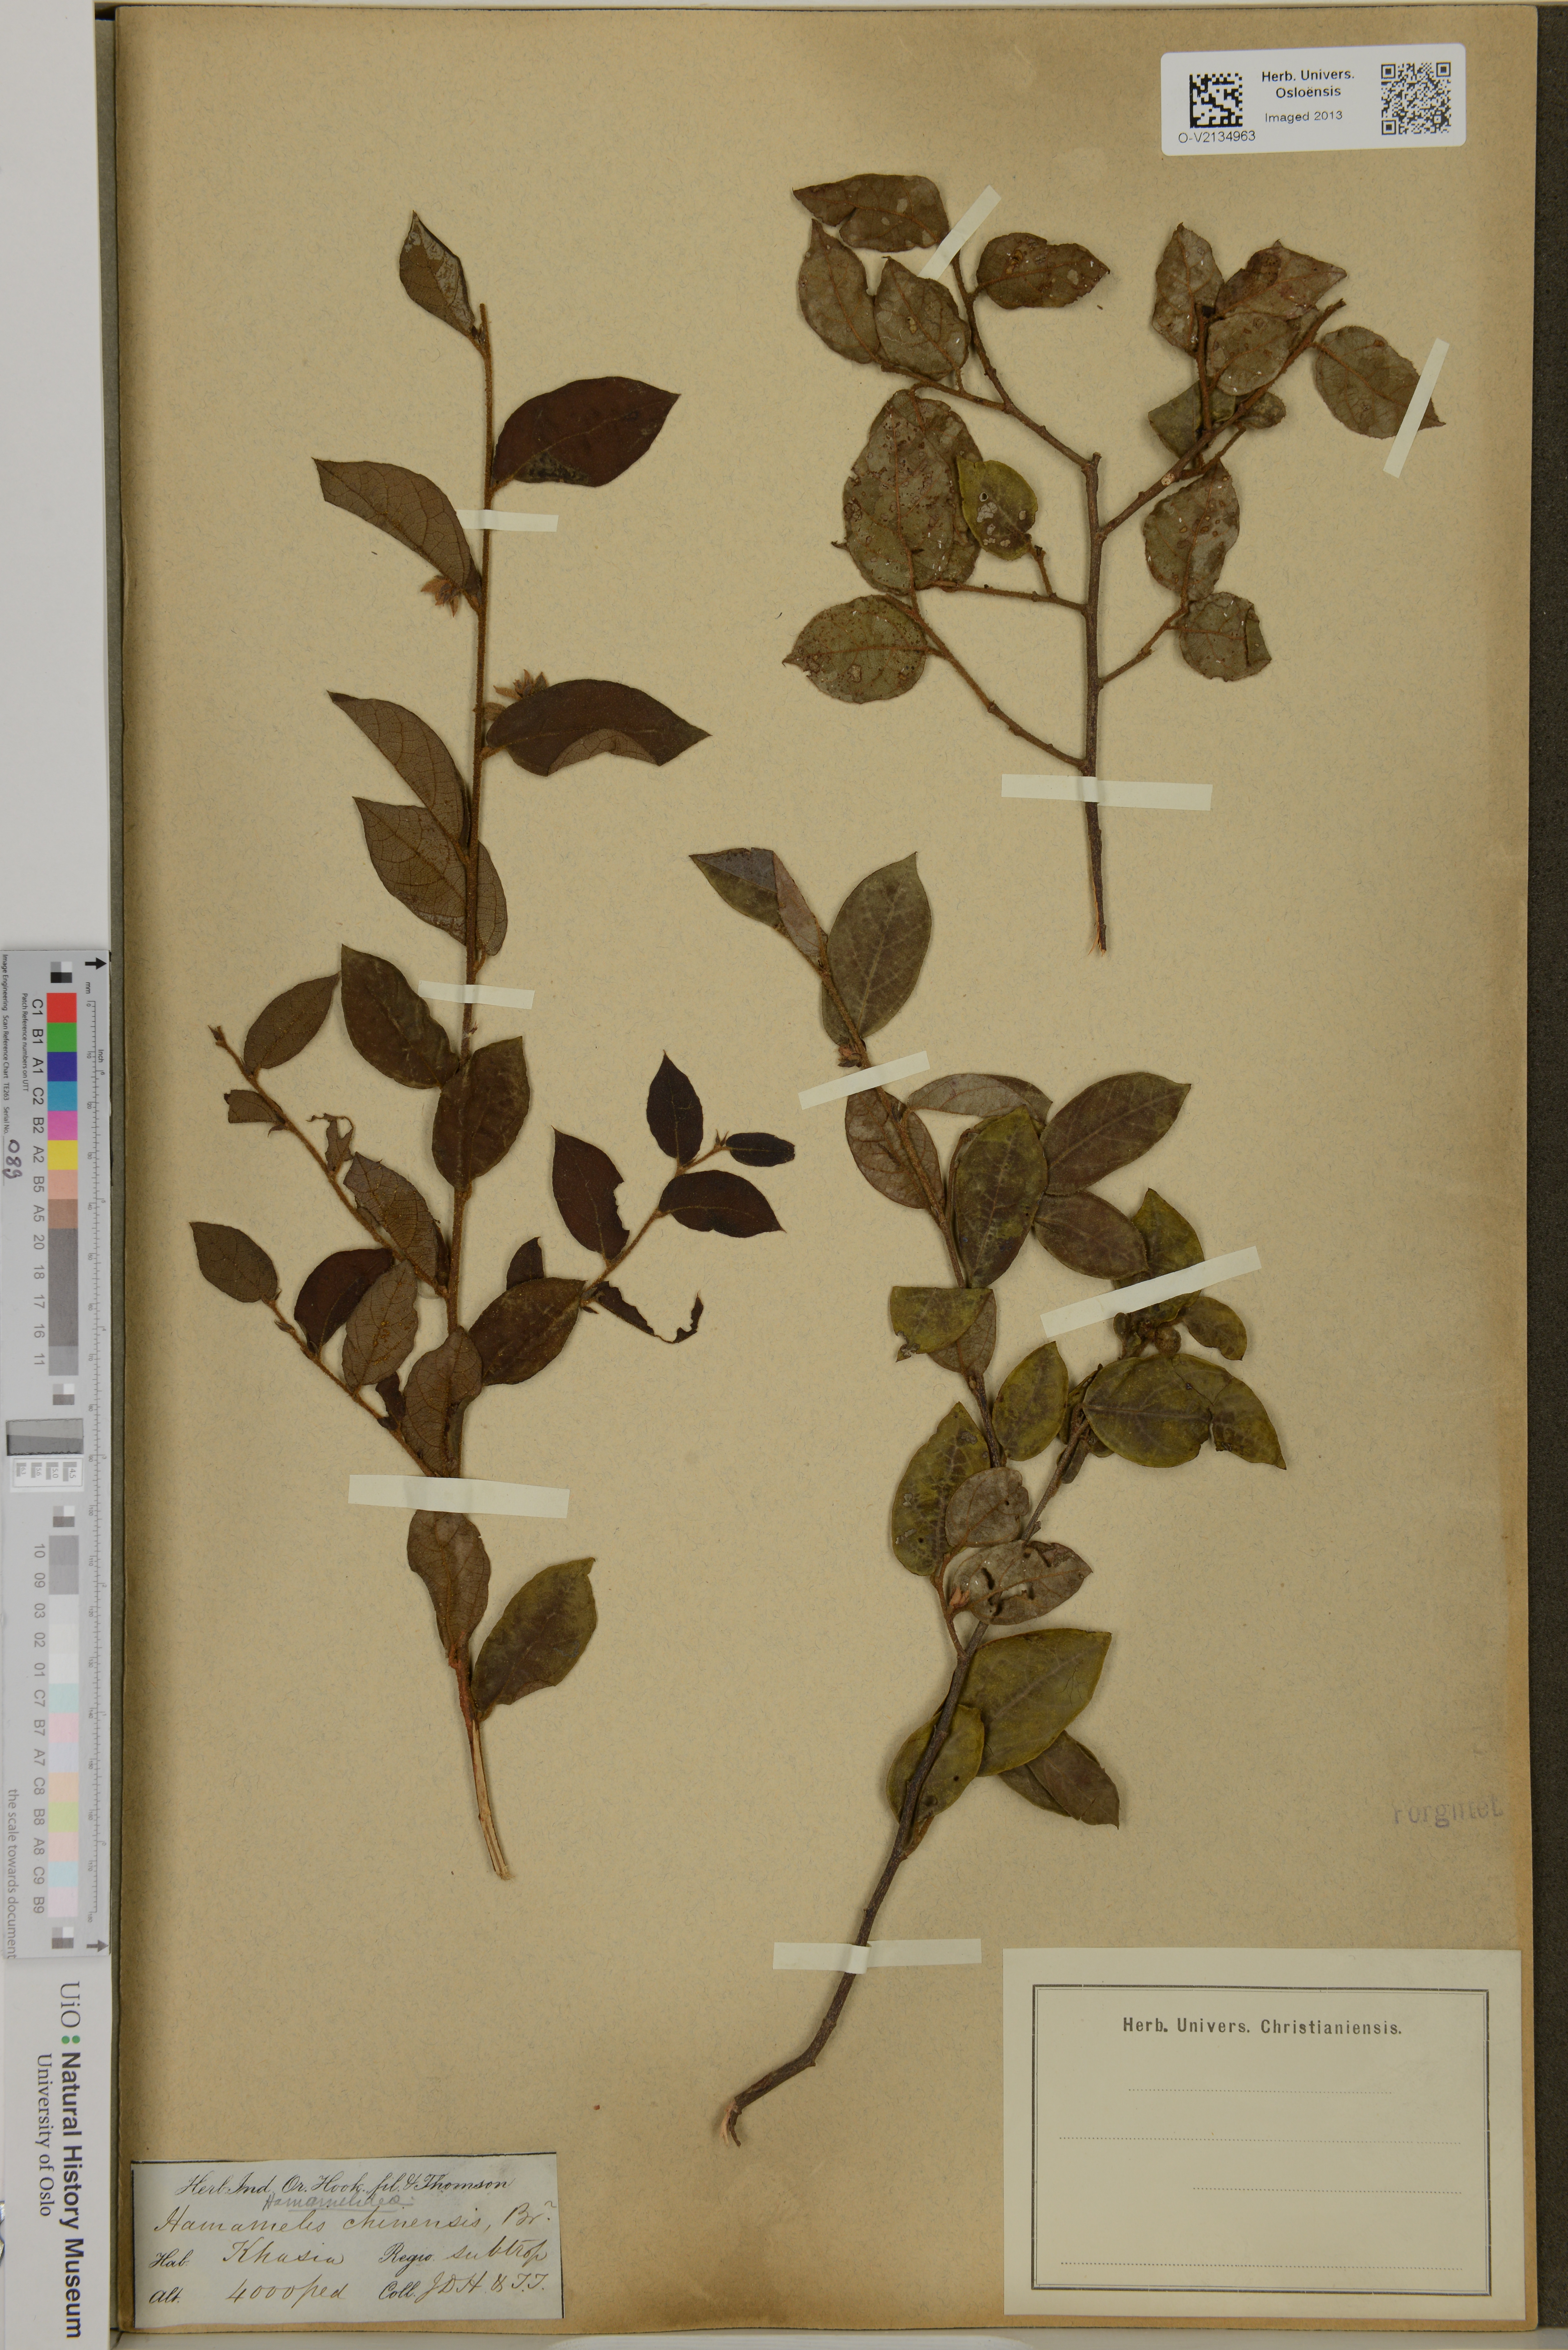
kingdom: Plantae
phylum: Tracheophyta
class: Magnoliopsida
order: Saxifragales
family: Hamamelidaceae
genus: Loropetalum
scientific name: Loropetalum chinense
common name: Chinese fringe flower
